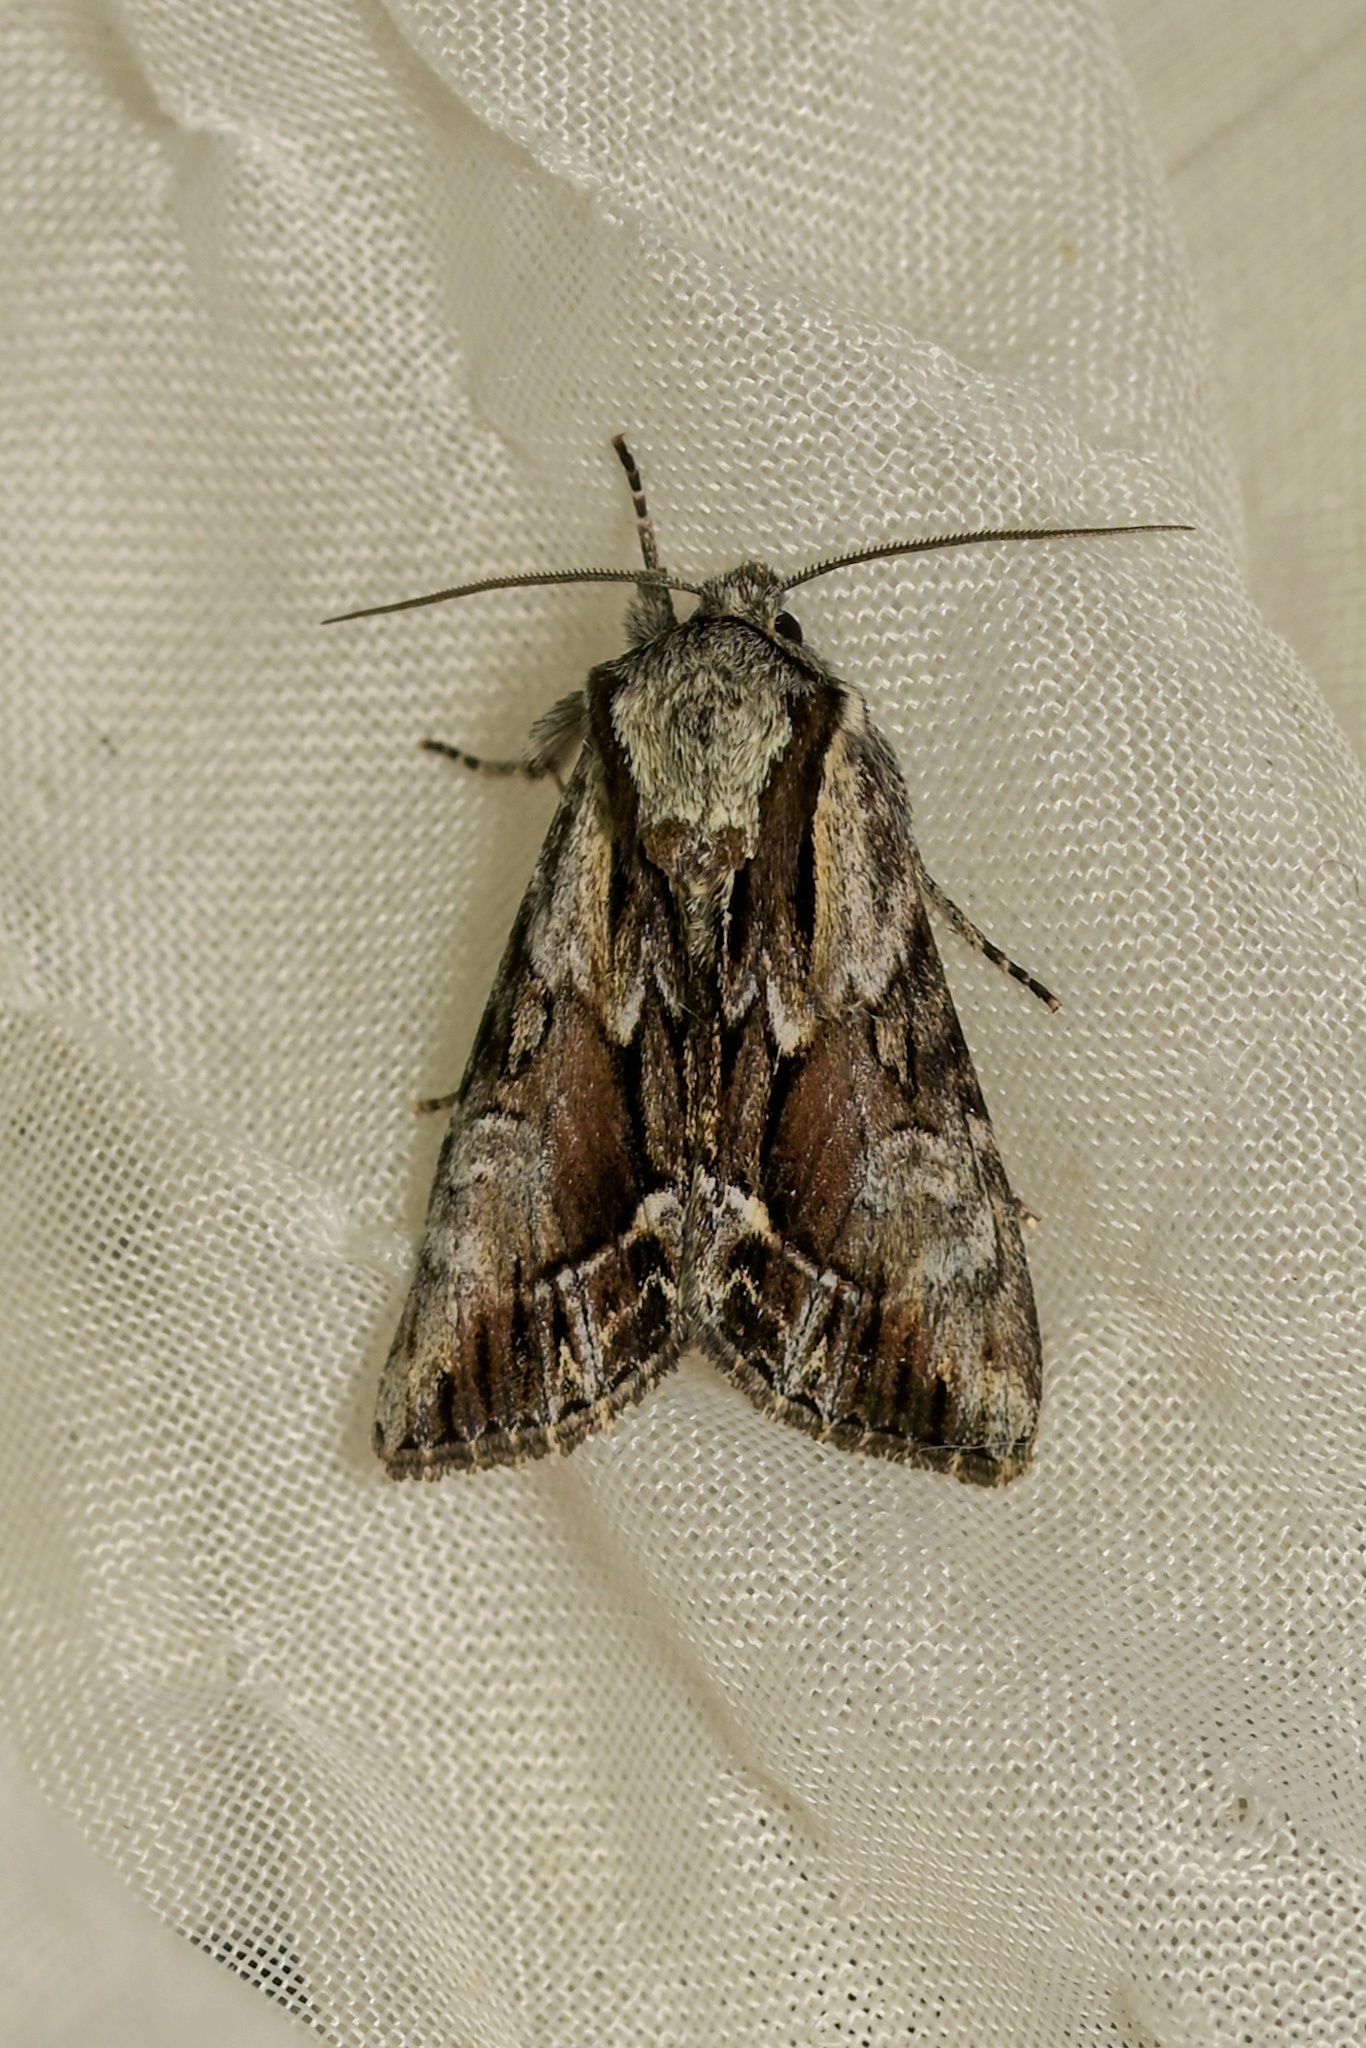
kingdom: Animalia
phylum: Arthropoda
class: Insecta
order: Lepidoptera
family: Noctuidae
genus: Hyppa
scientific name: Hyppa rectilinea
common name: Saxon
